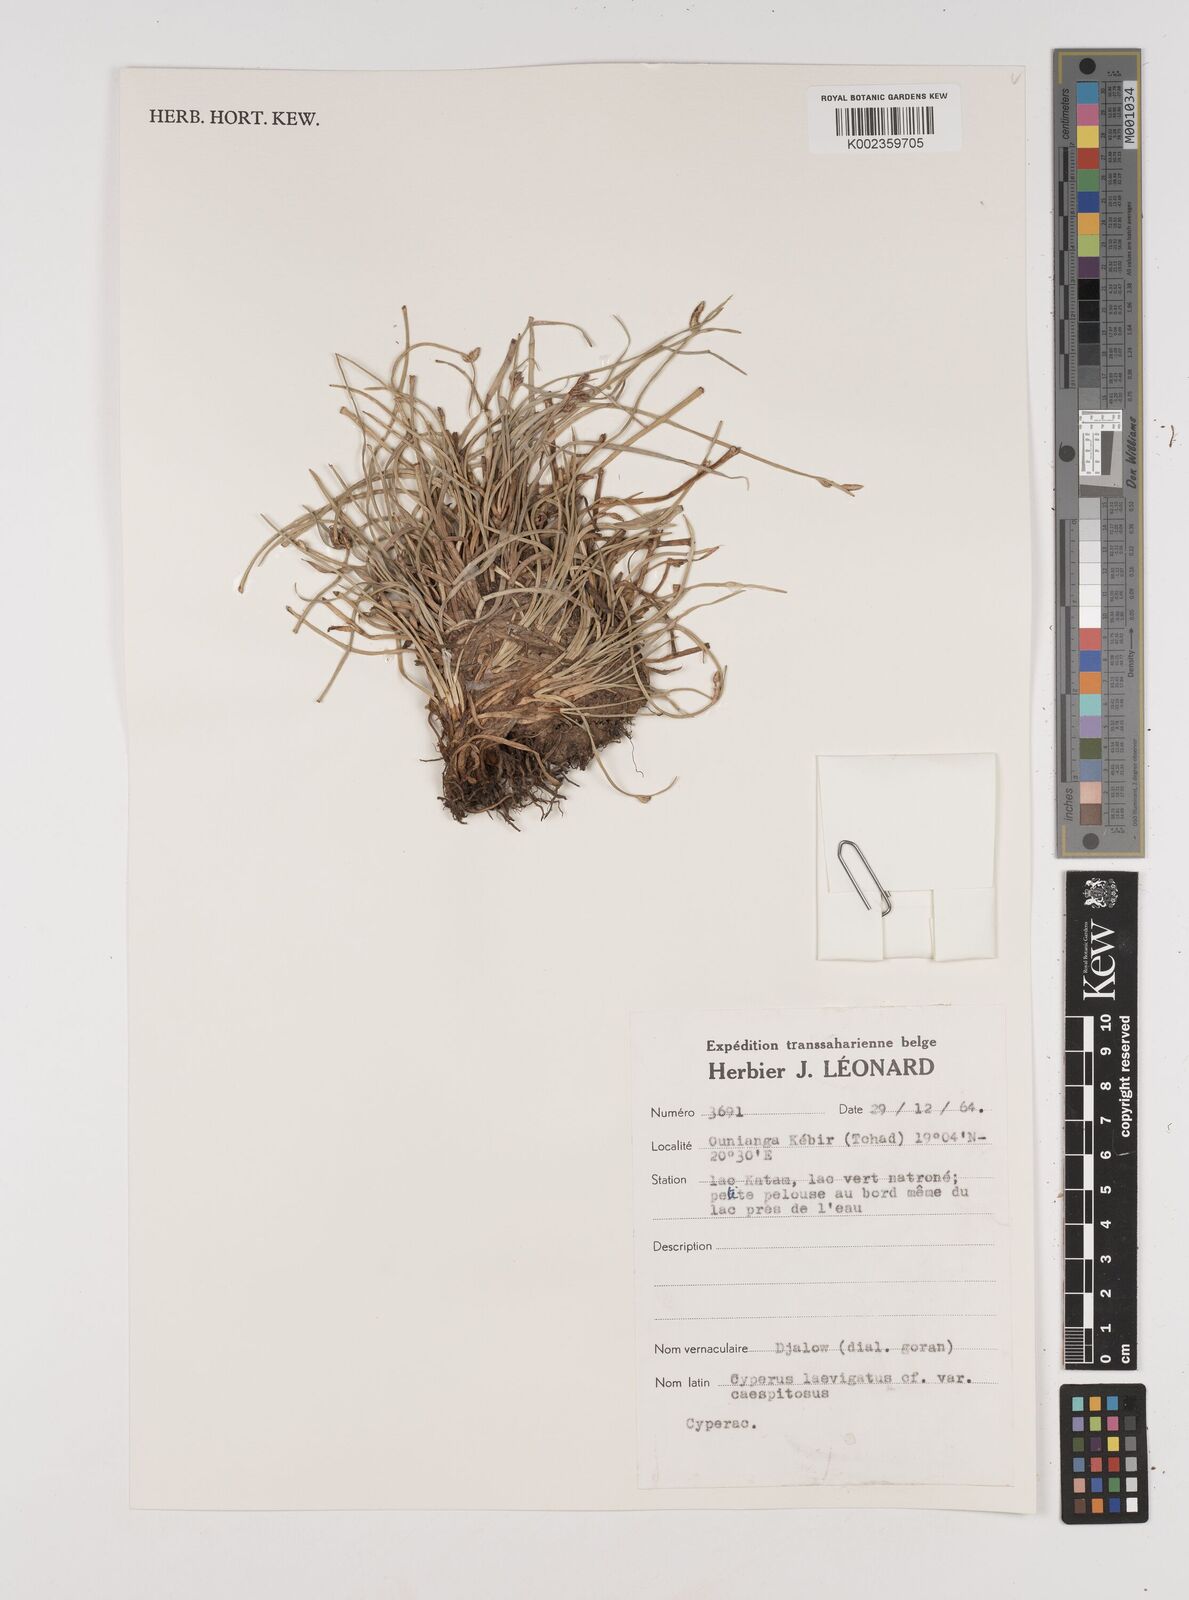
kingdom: Plantae
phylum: Tracheophyta
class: Liliopsida
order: Poales
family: Cyperaceae
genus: Cyperus
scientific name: Cyperus laevigatus
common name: Smooth flat sedge
